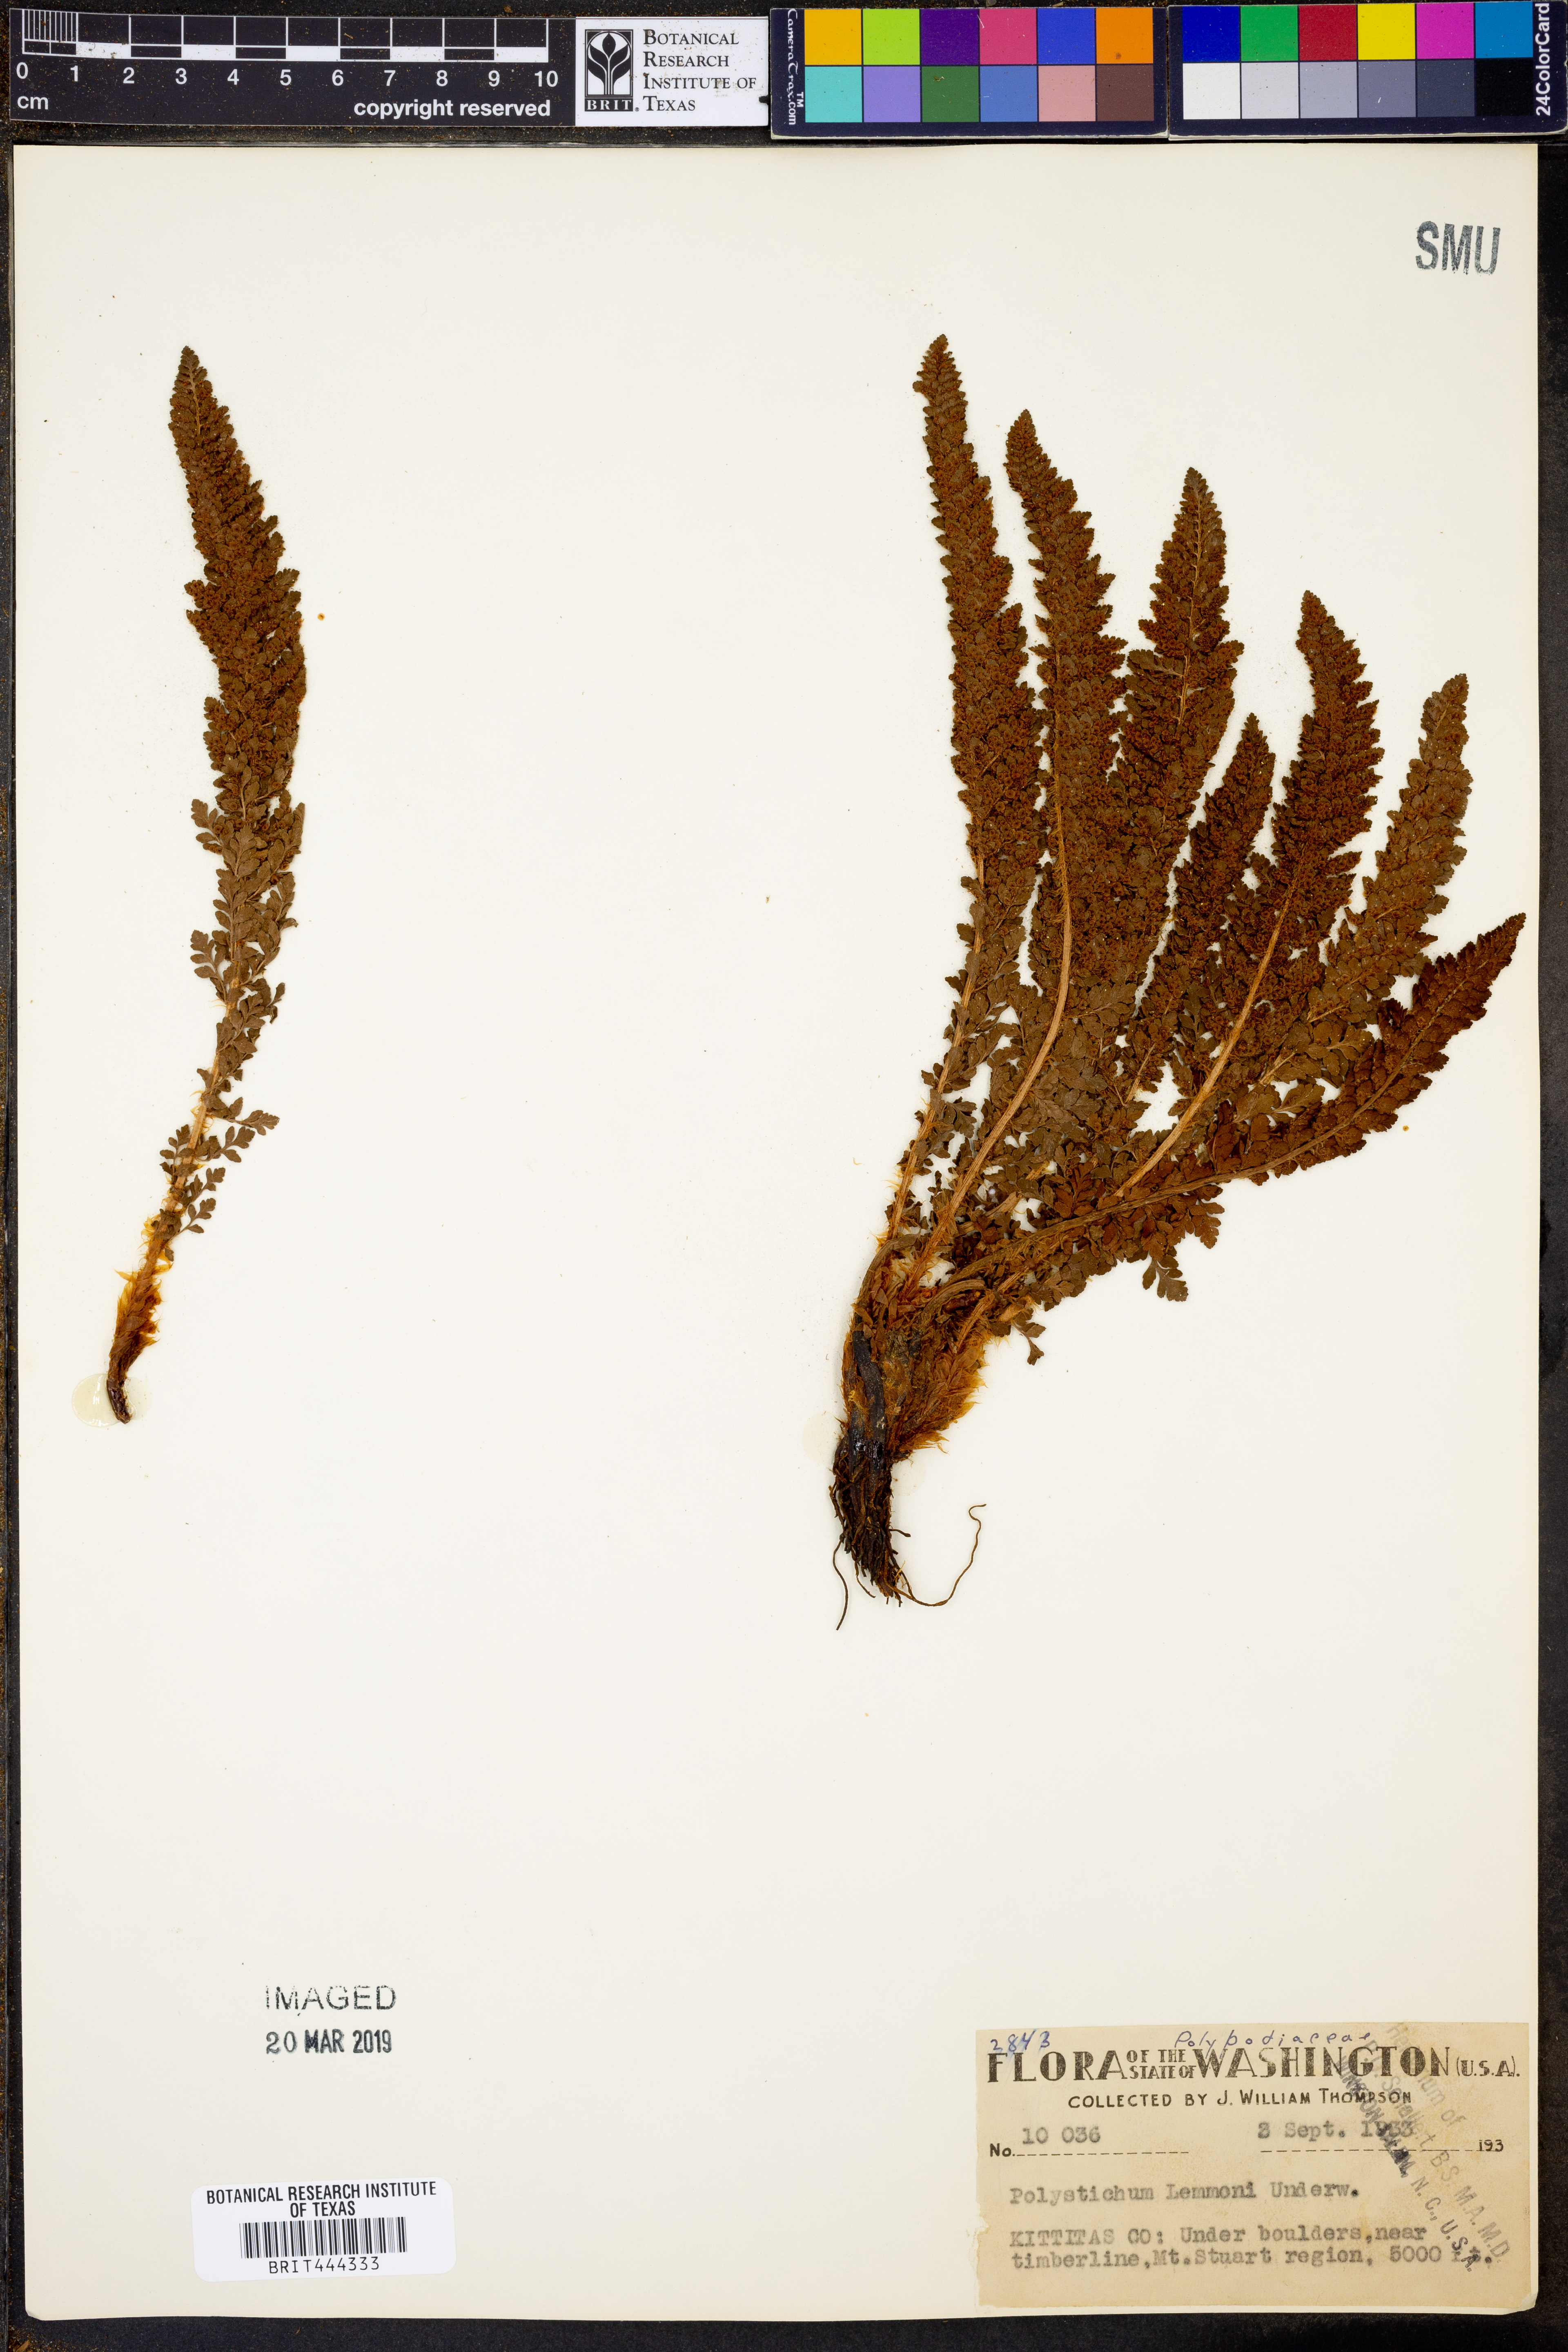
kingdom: Plantae
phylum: Tracheophyta
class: Polypodiopsida
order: Polypodiales
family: Dryopteridaceae
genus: Polystichum
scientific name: Polystichum lemmonii
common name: Lemmon's holly fern
